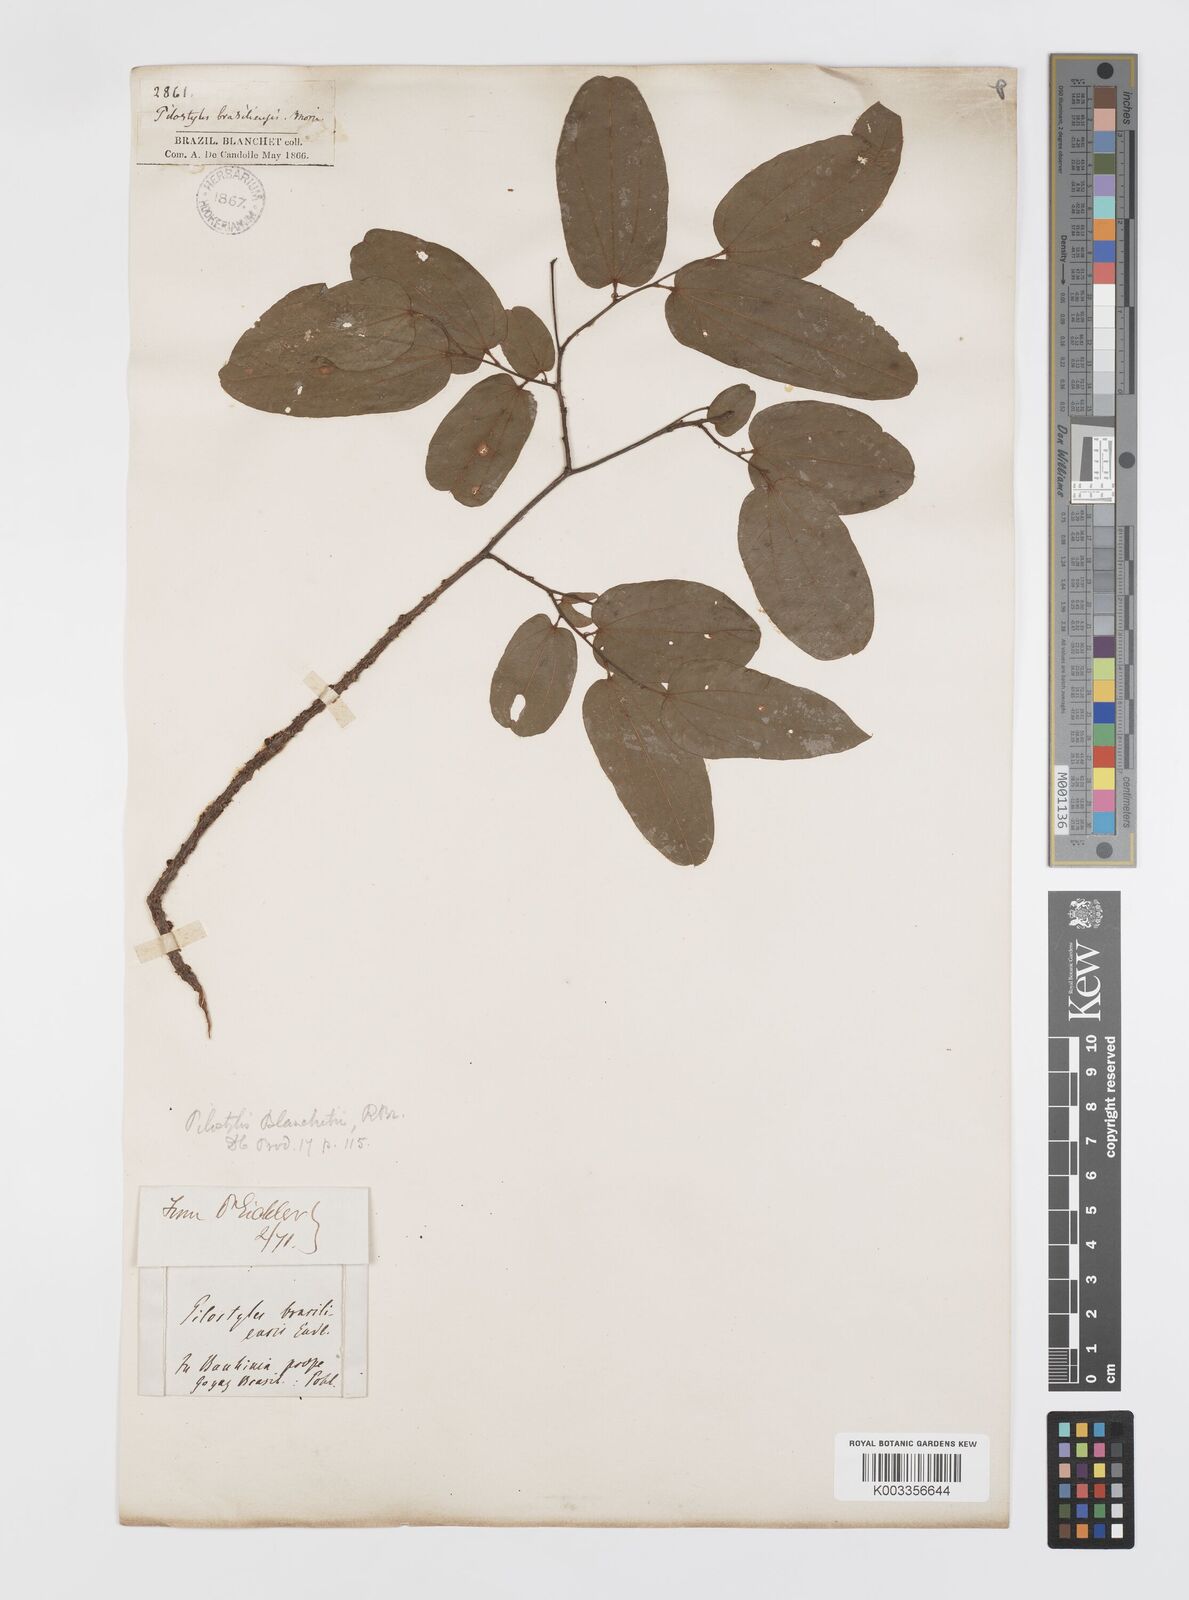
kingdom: Plantae
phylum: Tracheophyta
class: Magnoliopsida
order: Cucurbitales
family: Apodanthaceae
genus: Pilostyles
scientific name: Pilostyles blanchetii
